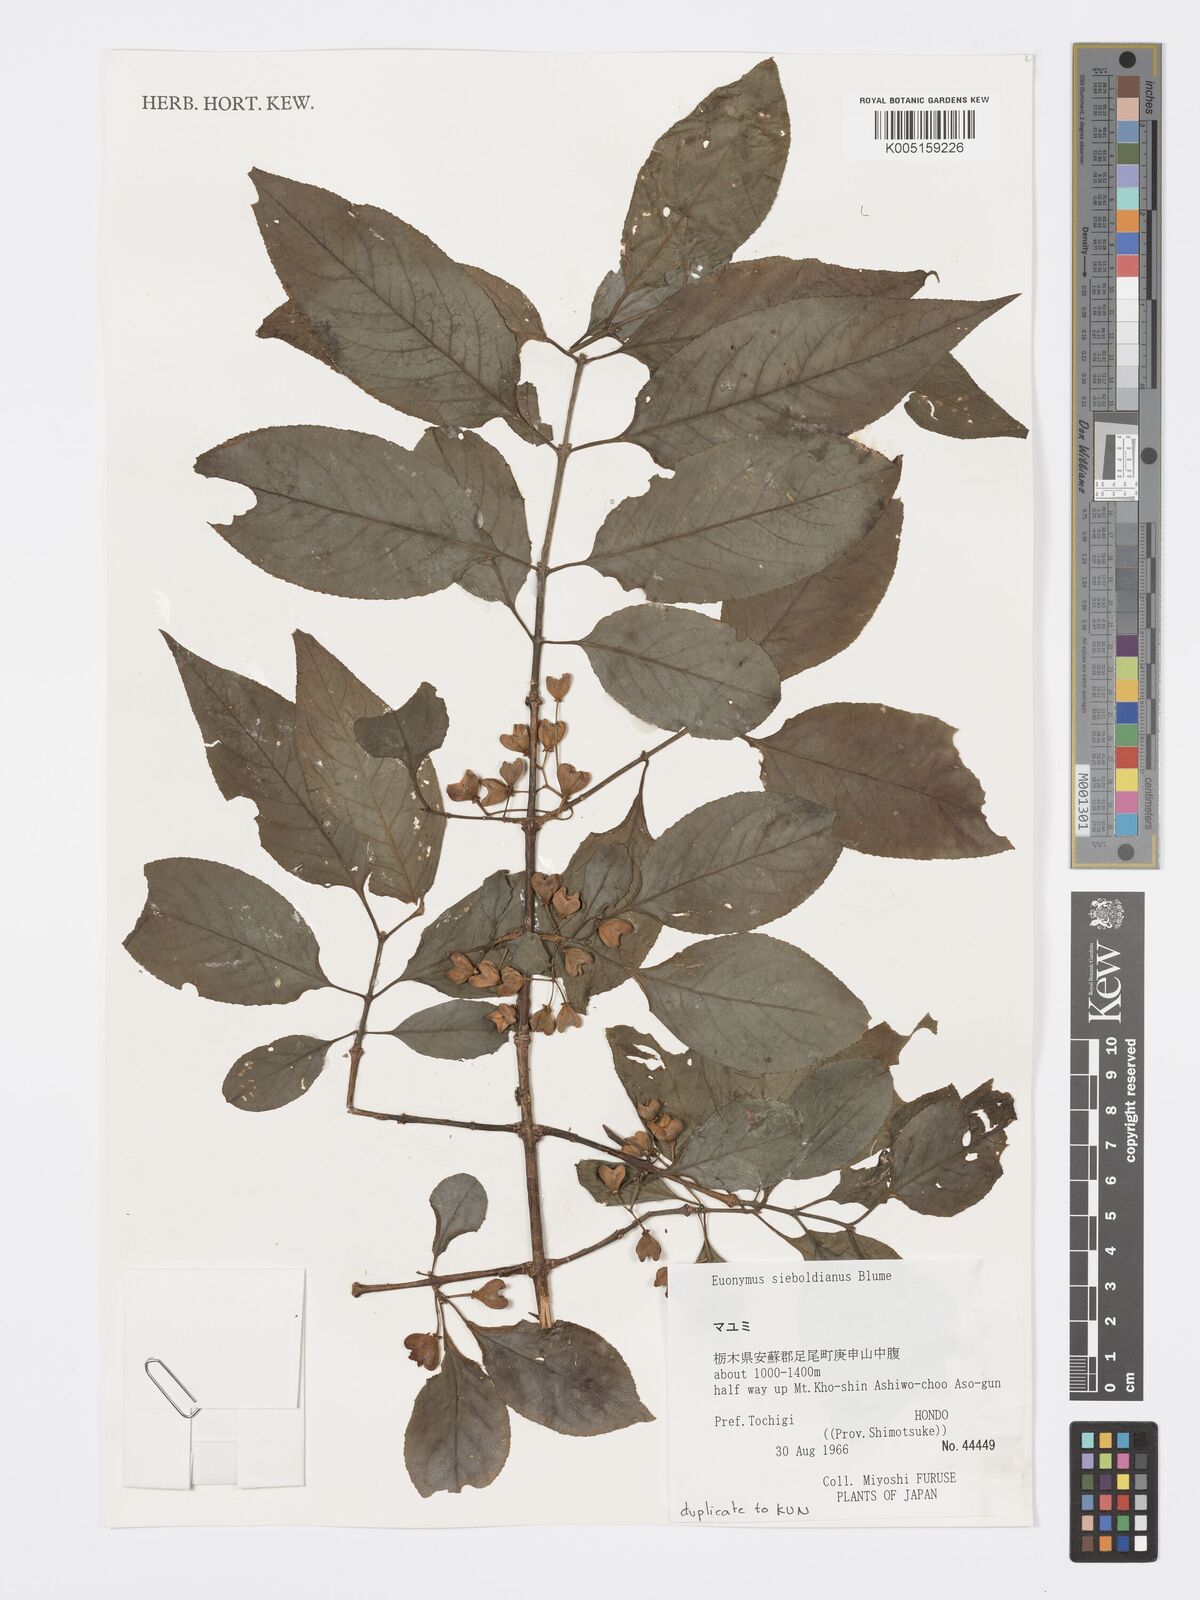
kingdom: Plantae
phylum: Tracheophyta
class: Magnoliopsida
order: Celastrales
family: Celastraceae
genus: Euonymus
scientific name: Euonymus hamiltonianus
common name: Hamilton's spindletree
